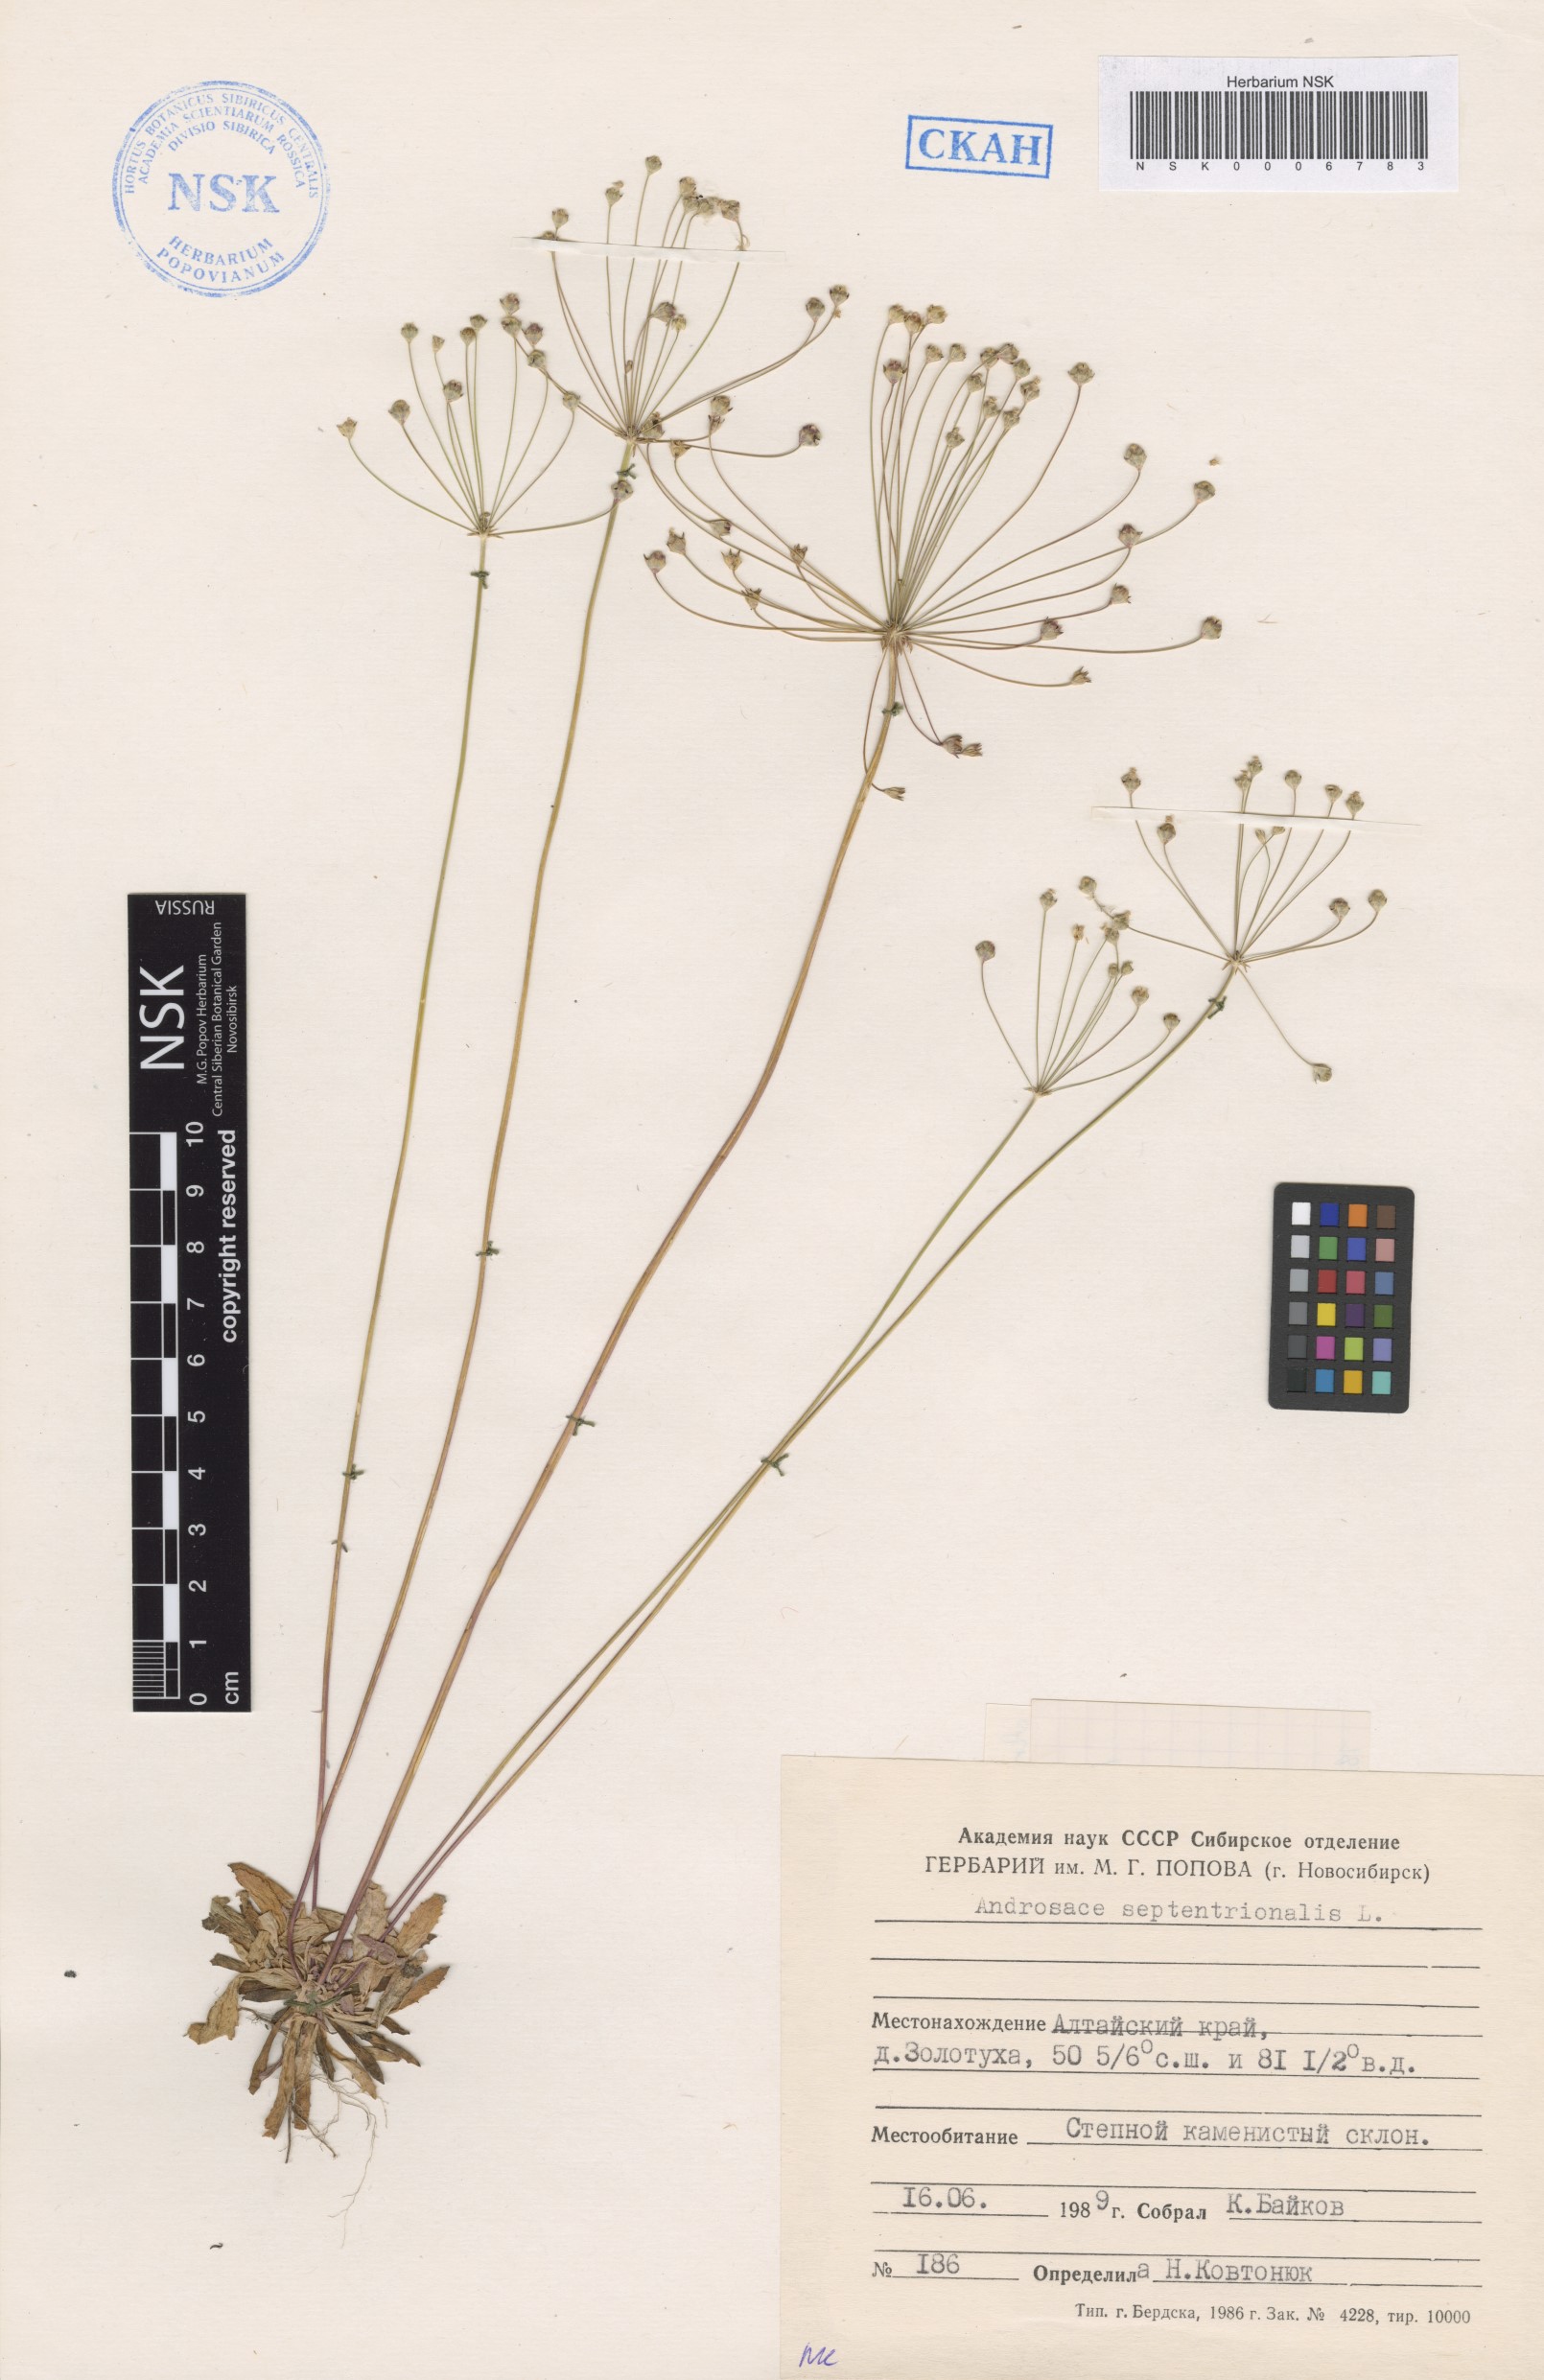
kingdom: Plantae
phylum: Tracheophyta
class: Magnoliopsida
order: Ericales
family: Primulaceae
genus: Androsace
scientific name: Androsace septentrionalis
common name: Hairy northern fairy-candelabra
